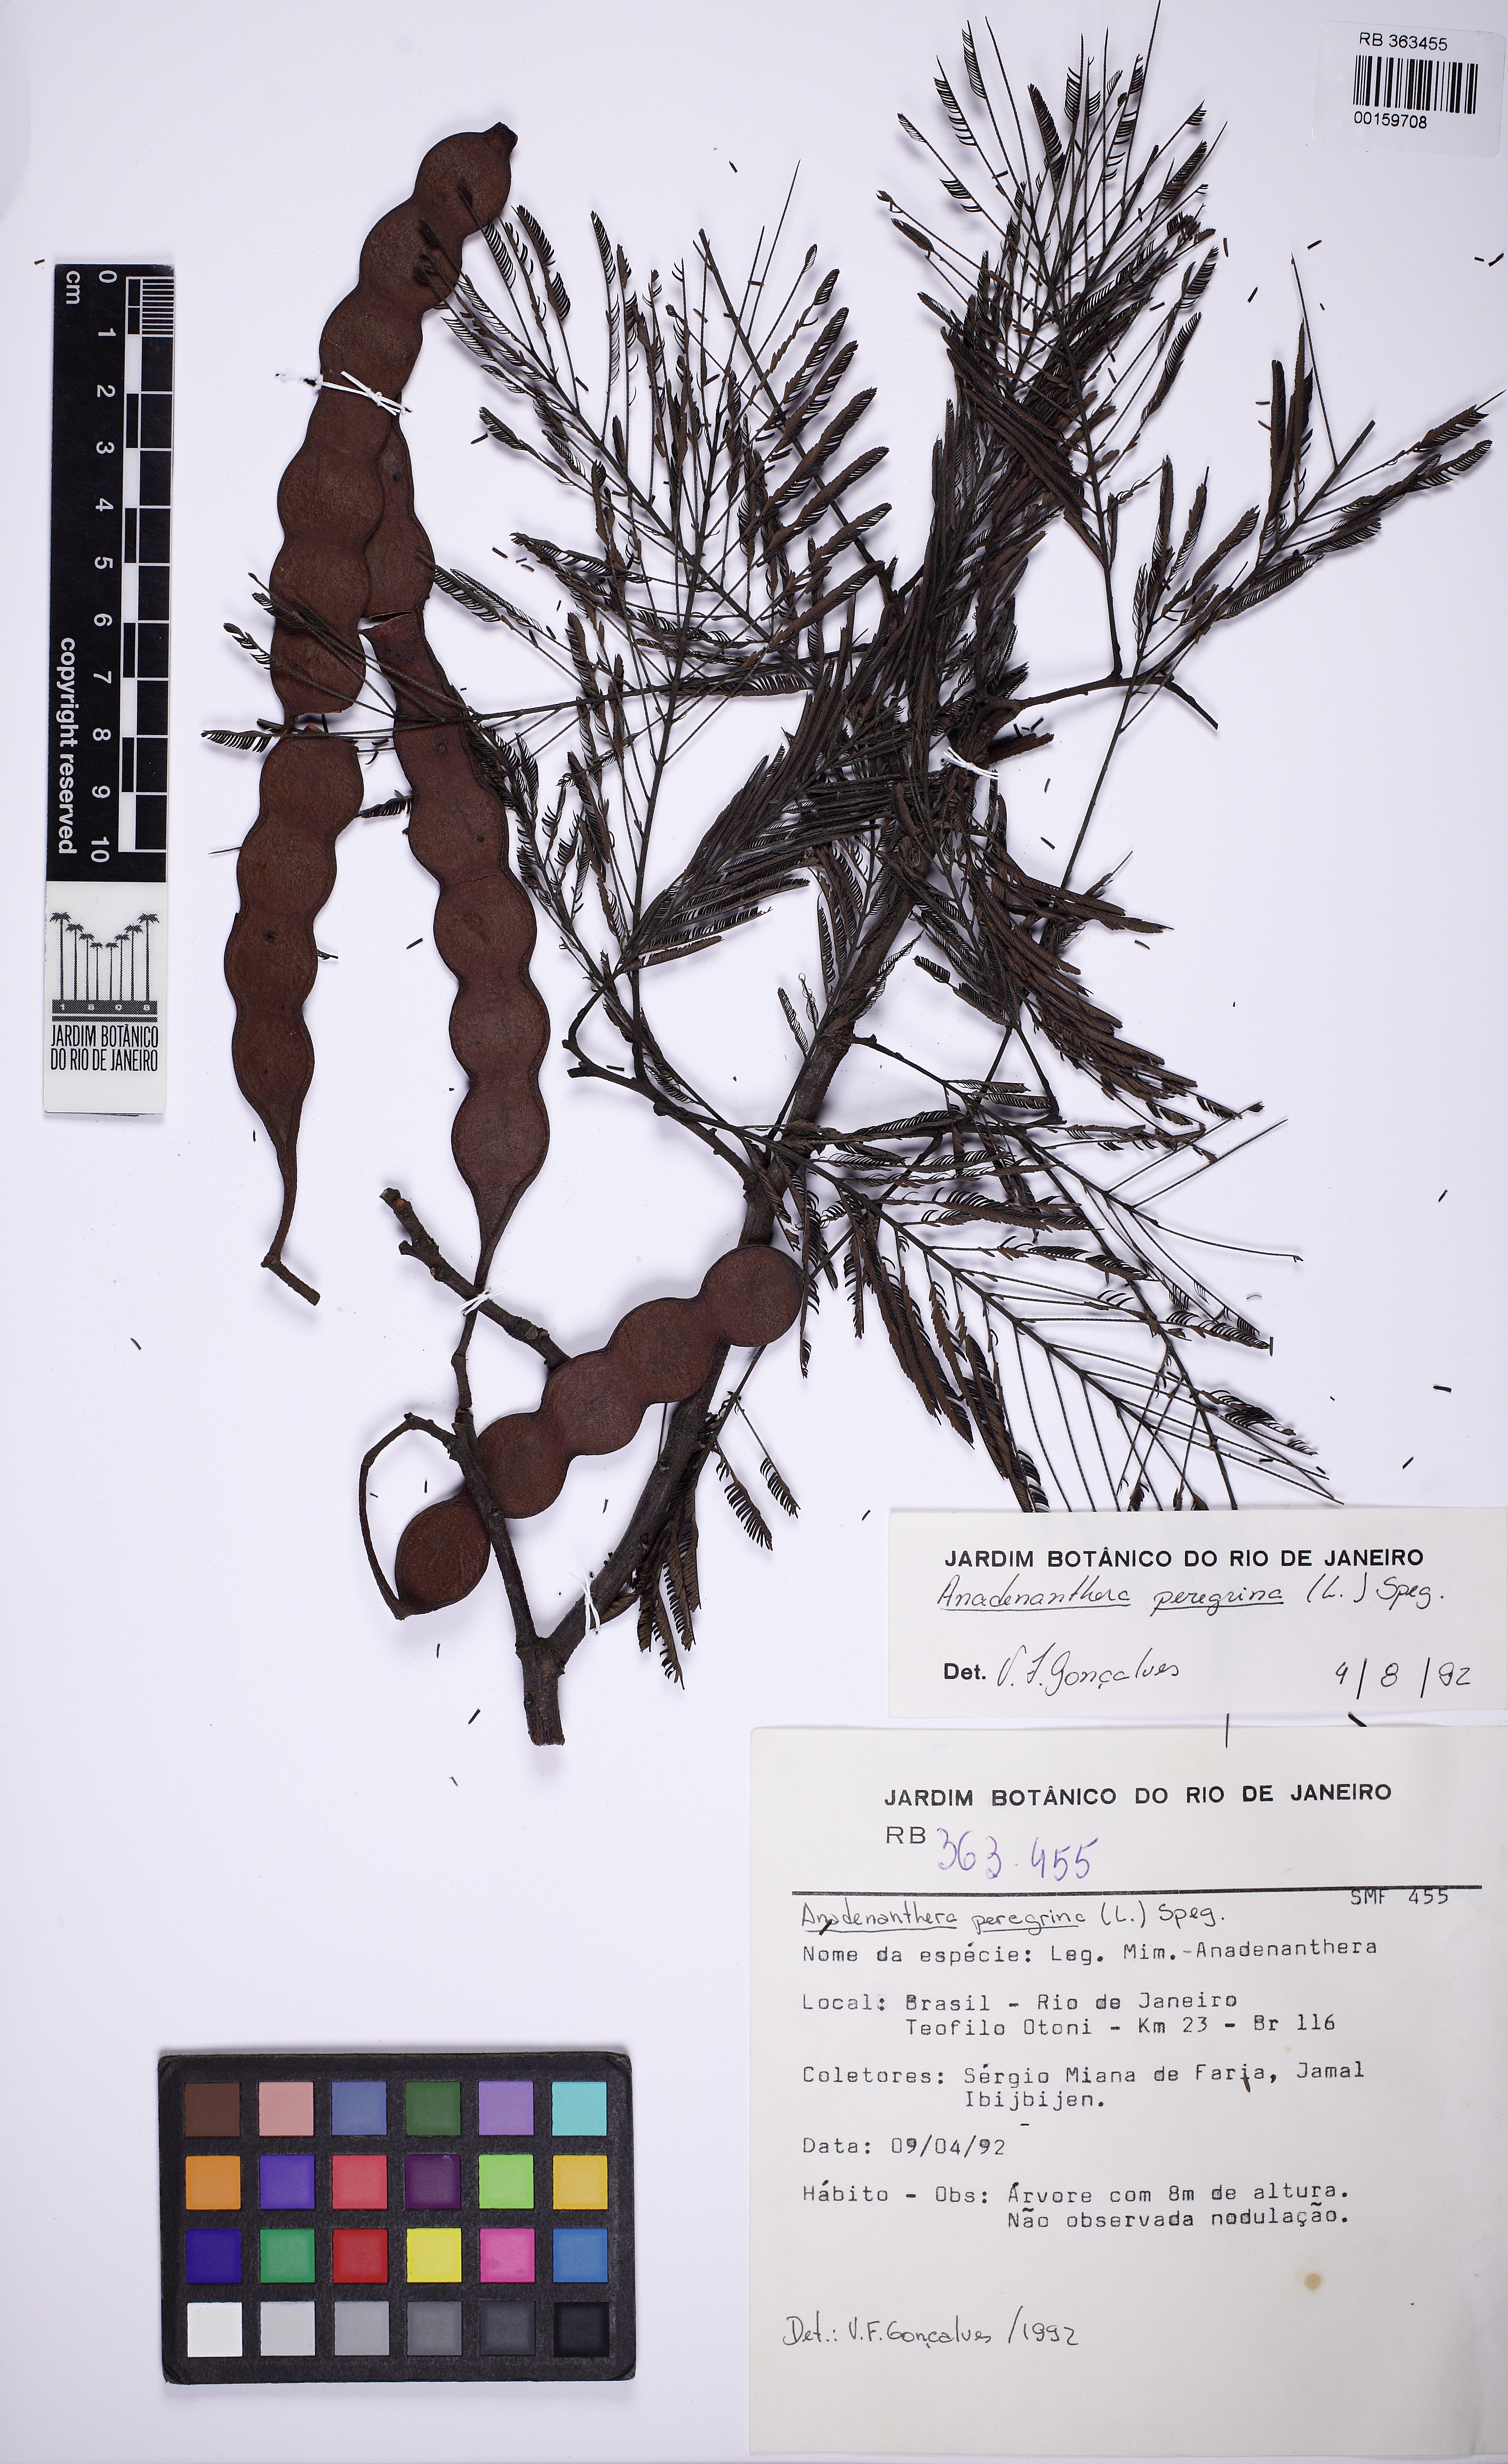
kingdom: Plantae
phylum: Tracheophyta
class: Magnoliopsida
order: Fabales
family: Fabaceae
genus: Anadenanthera
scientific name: Anadenanthera peregrina
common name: Cohoba
